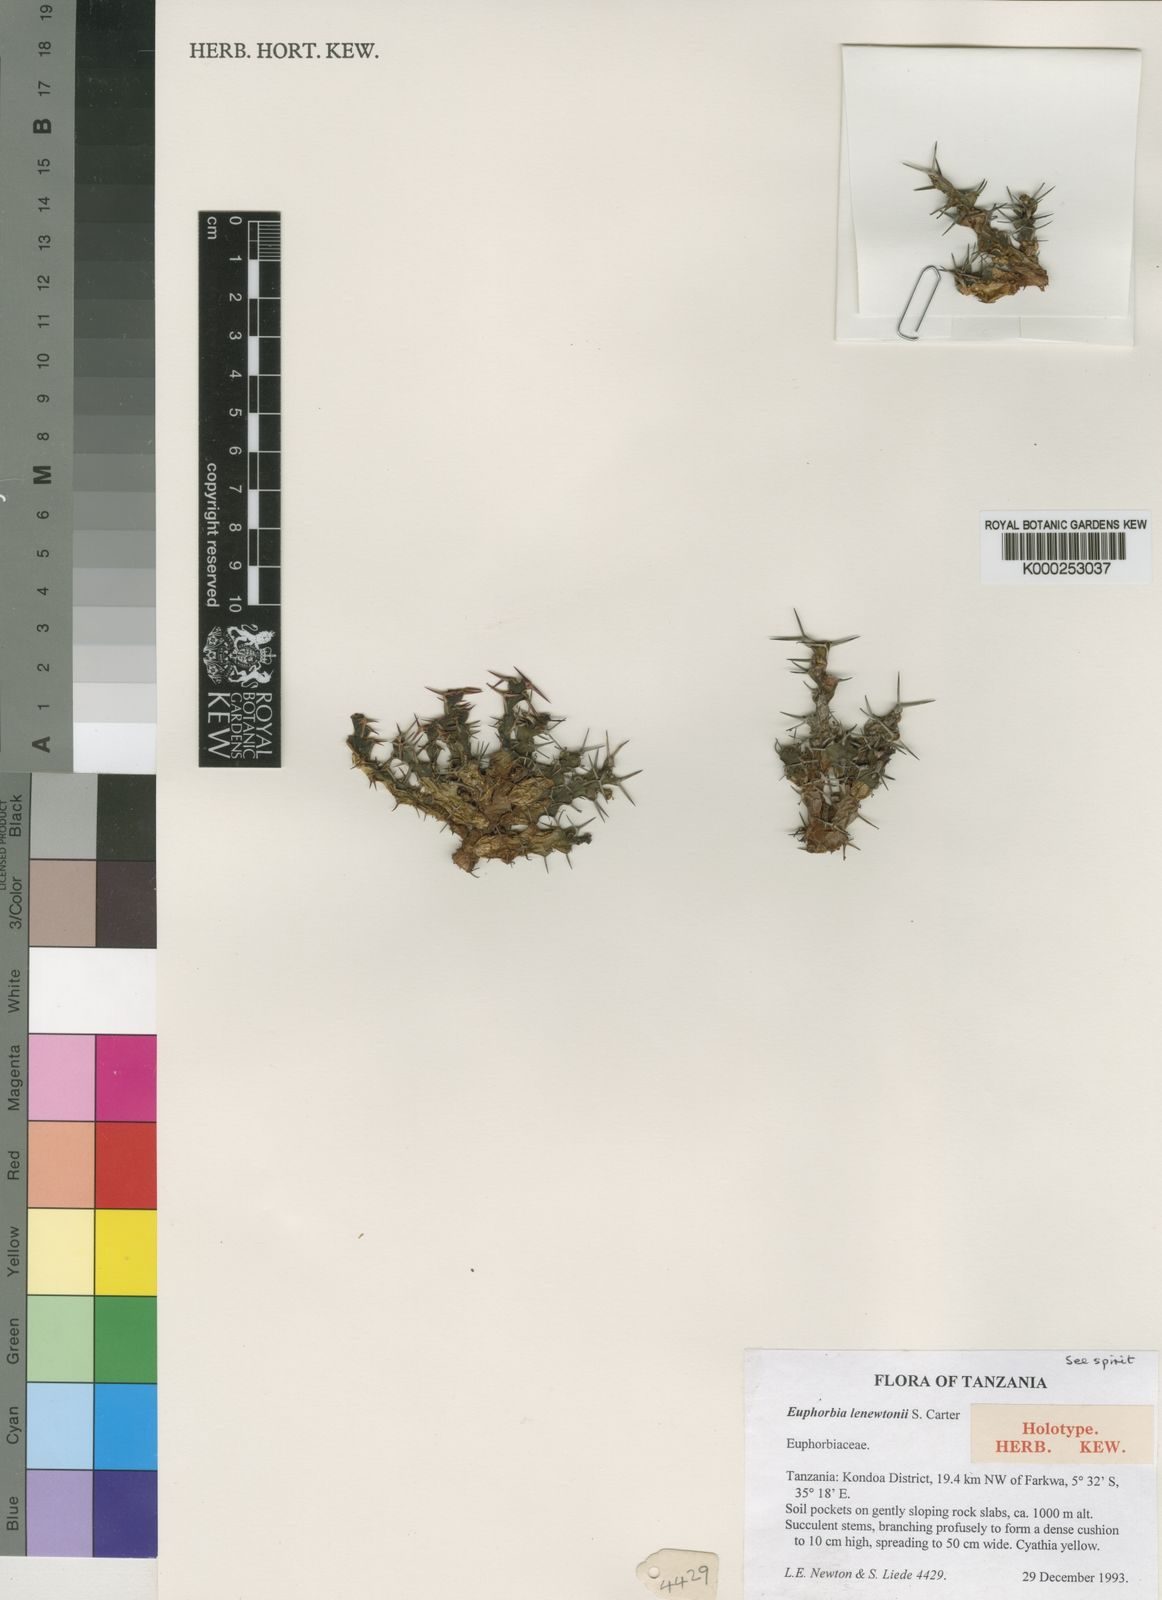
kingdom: Plantae
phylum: Tracheophyta
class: Magnoliopsida
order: Malpighiales
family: Euphorbiaceae
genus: Euphorbia
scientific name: Euphorbia lenewtonii
